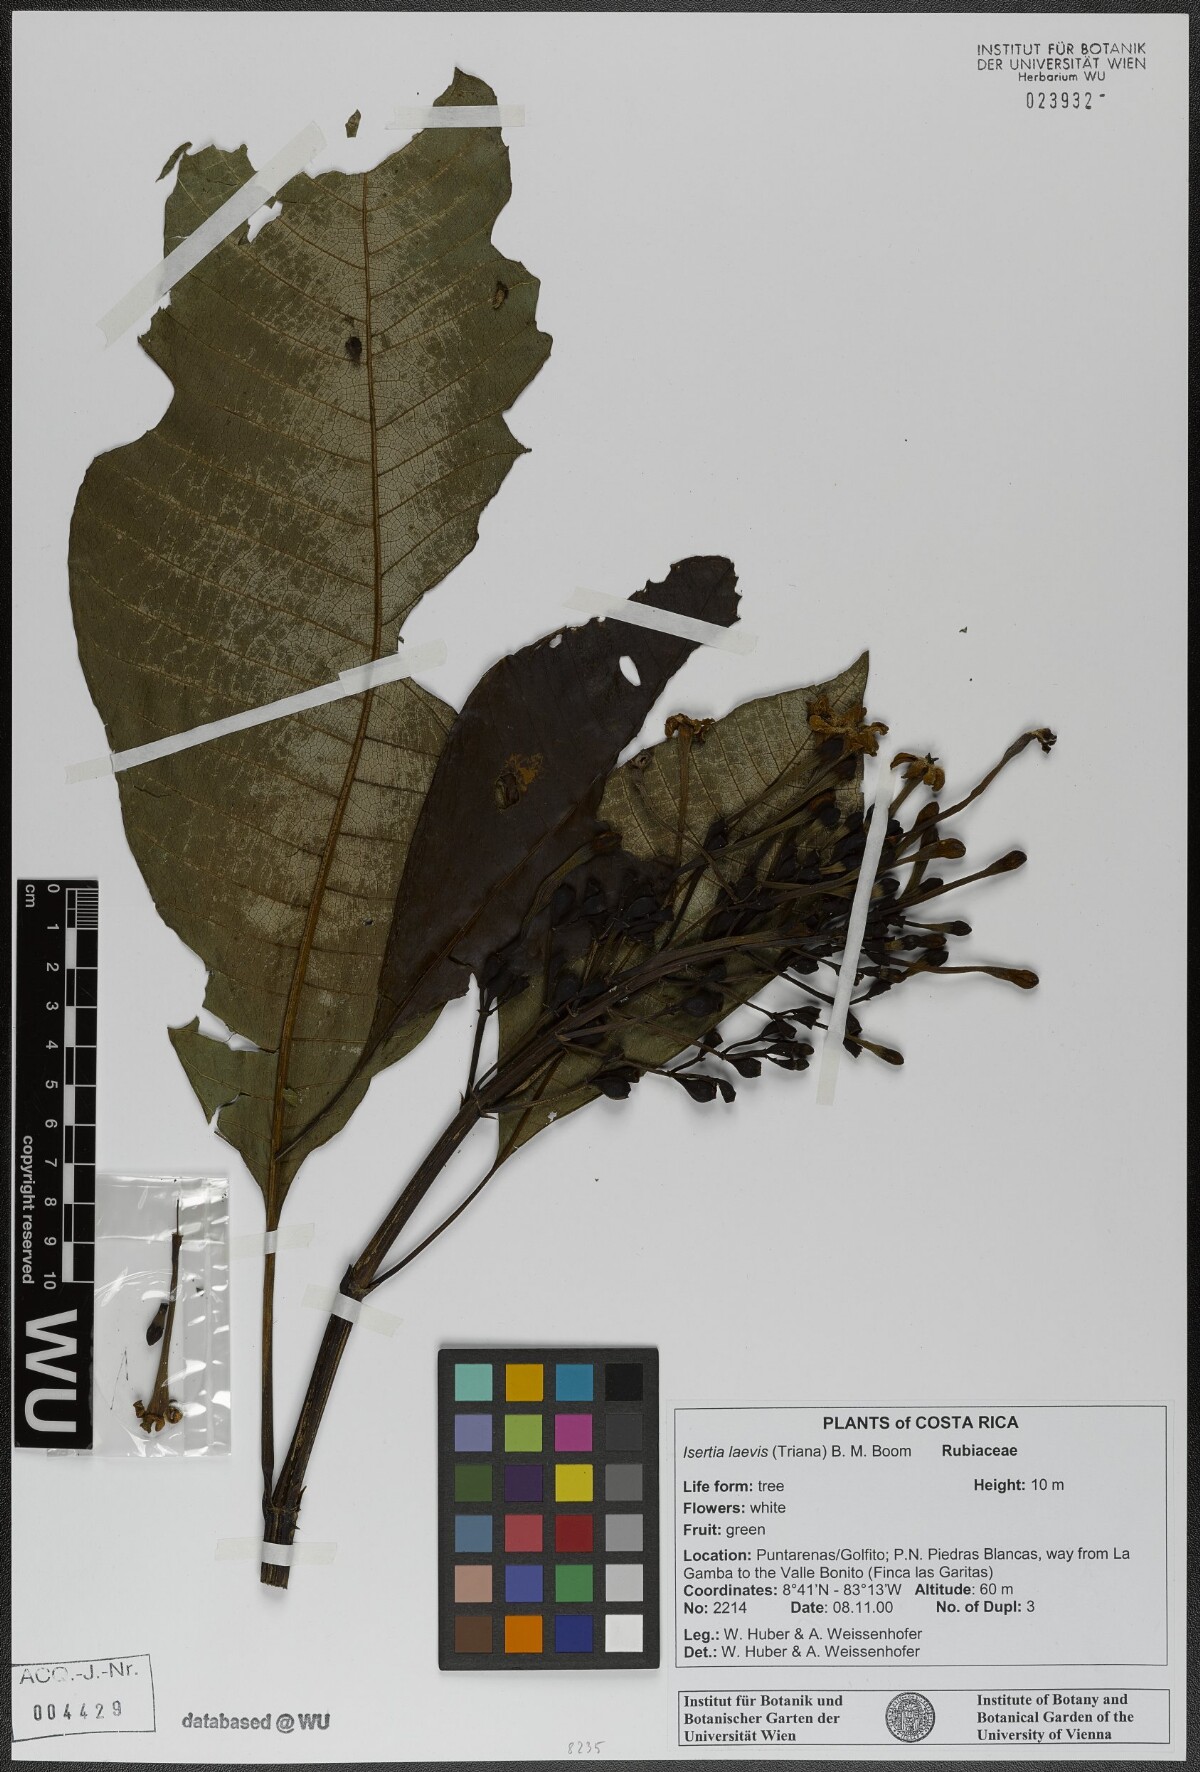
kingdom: Plantae
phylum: Tracheophyta
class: Magnoliopsida
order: Gentianales
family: Rubiaceae
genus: Isertia
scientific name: Isertia laevis
